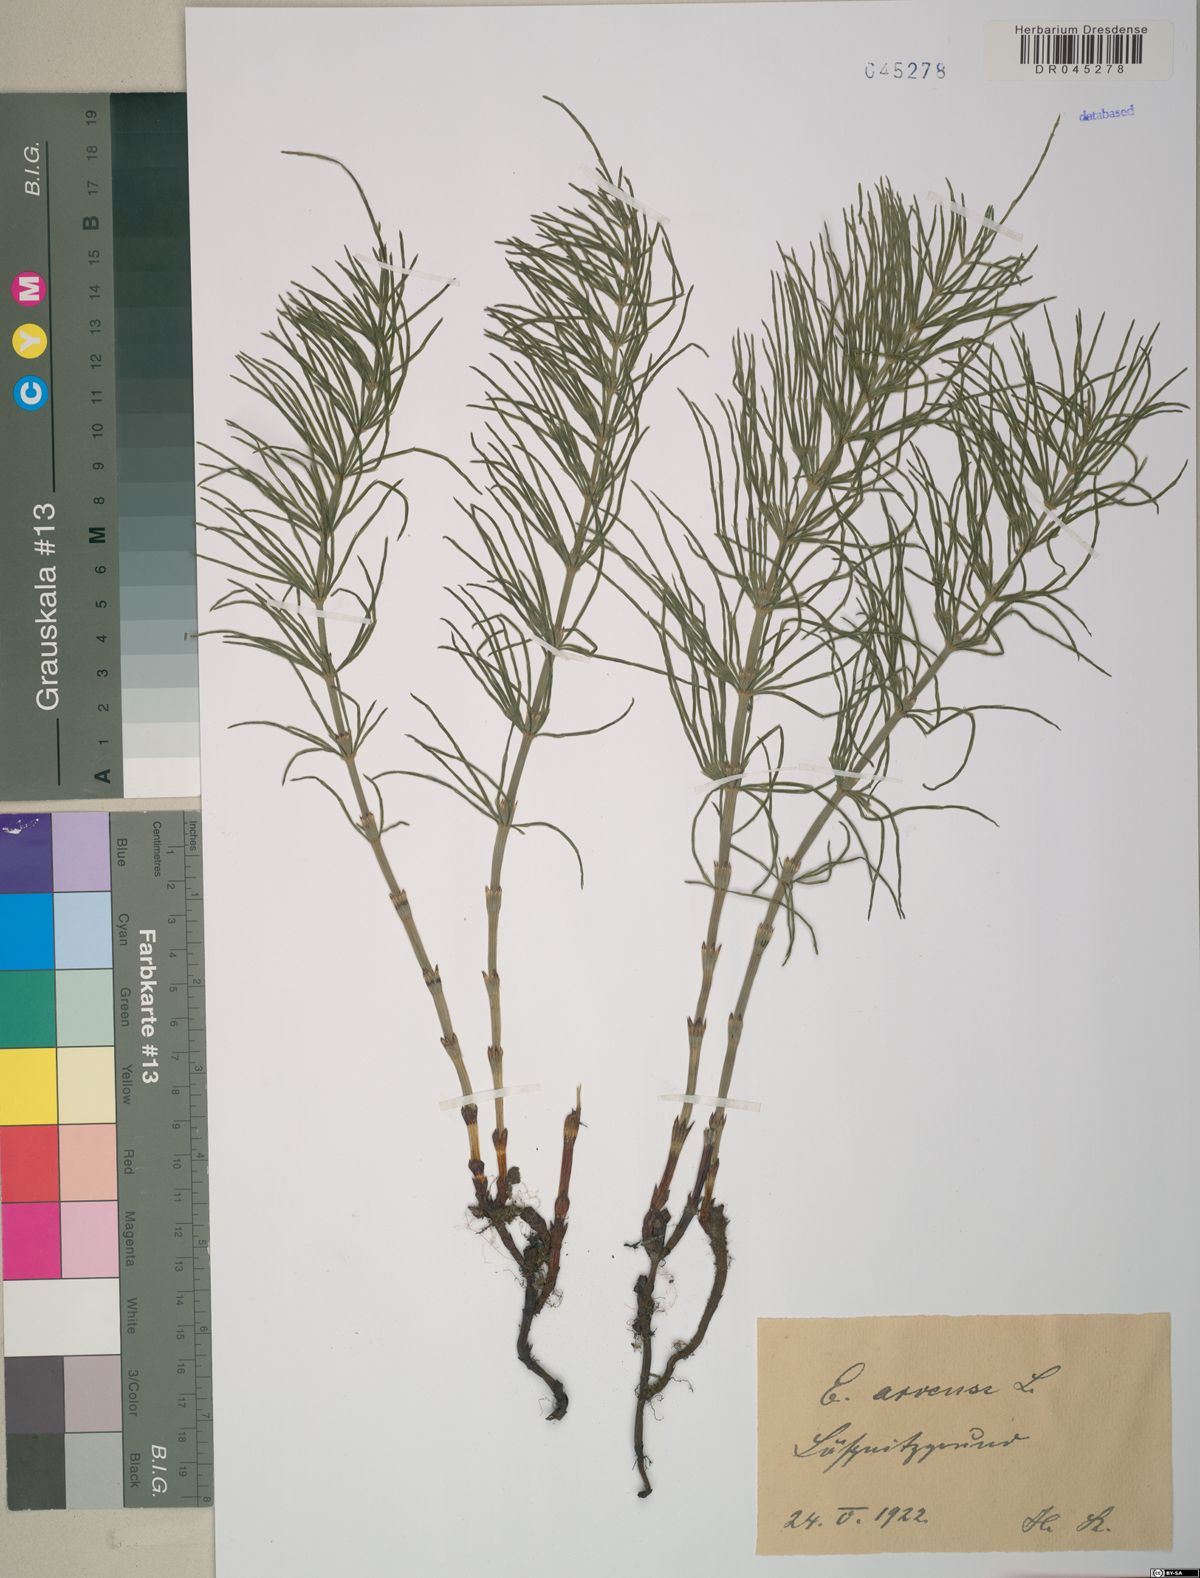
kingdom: Plantae
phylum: Tracheophyta
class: Polypodiopsida
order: Equisetales
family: Equisetaceae
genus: Equisetum
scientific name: Equisetum arvense
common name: Field horsetail
